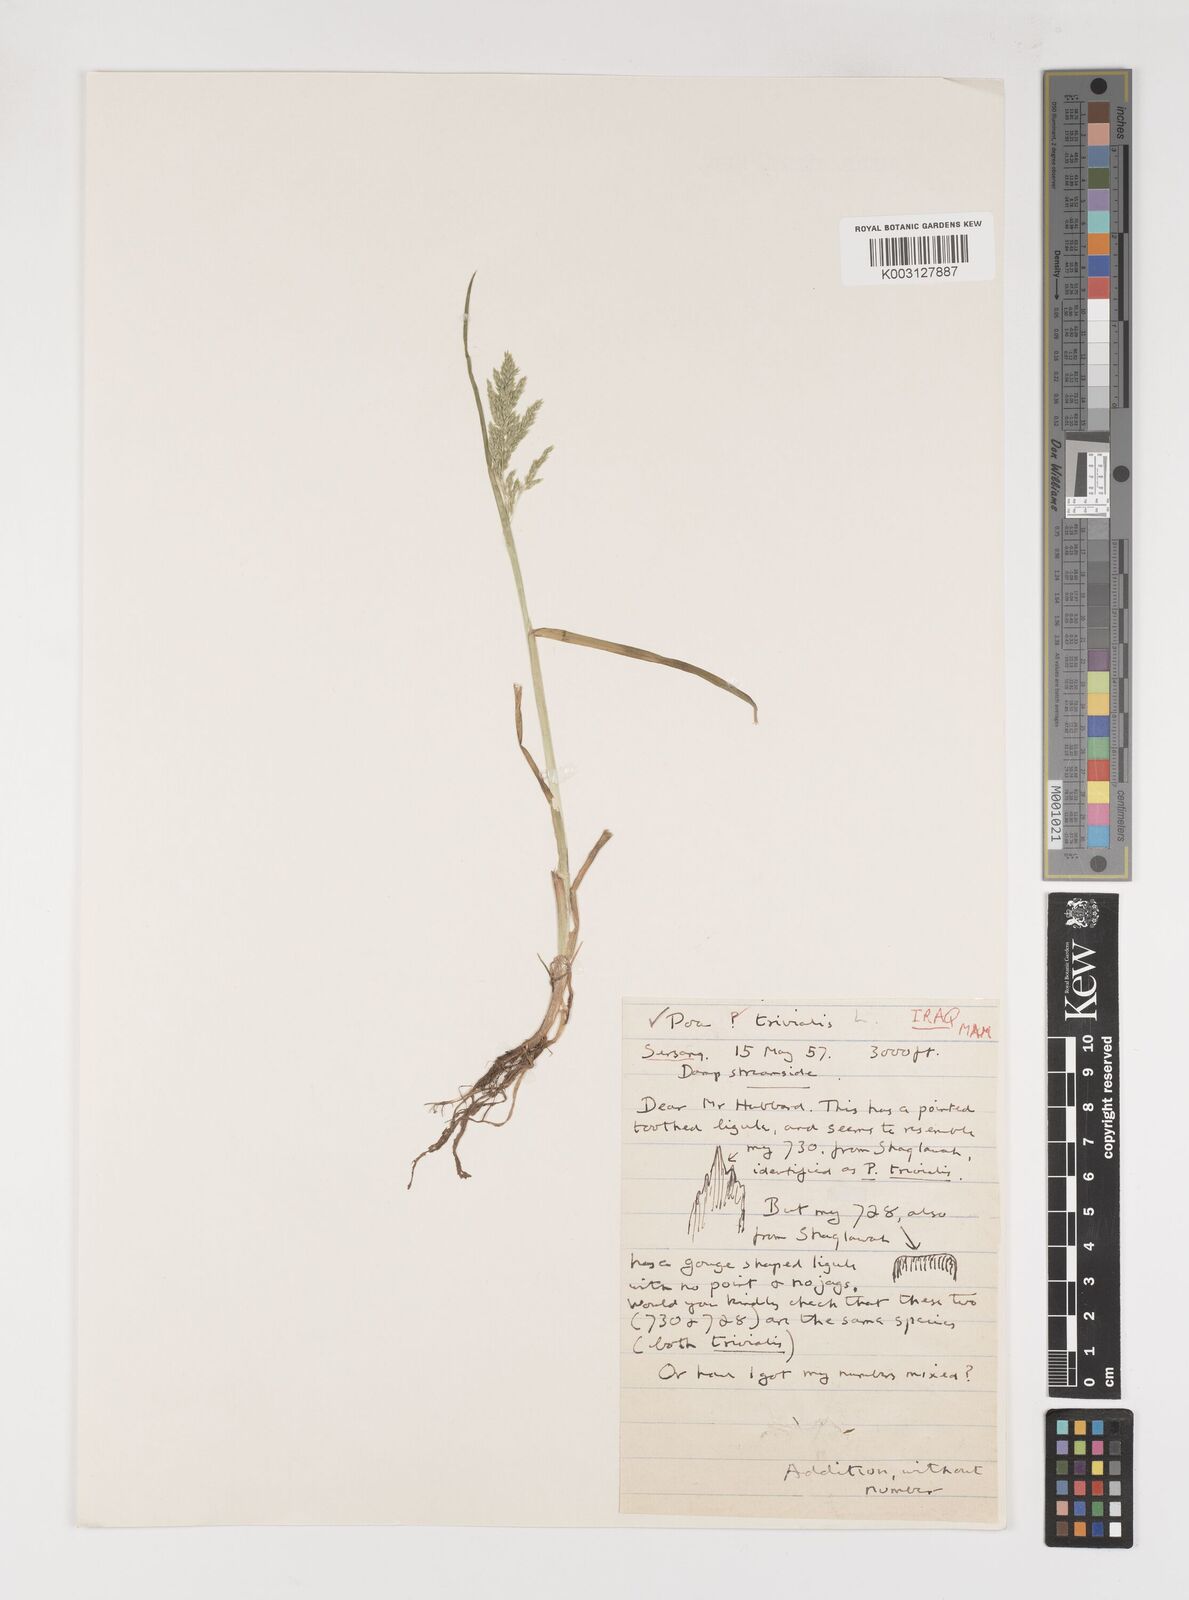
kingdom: Plantae
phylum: Tracheophyta
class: Liliopsida
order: Poales
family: Poaceae
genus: Poa
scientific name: Poa trivialis
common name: Rough bluegrass
